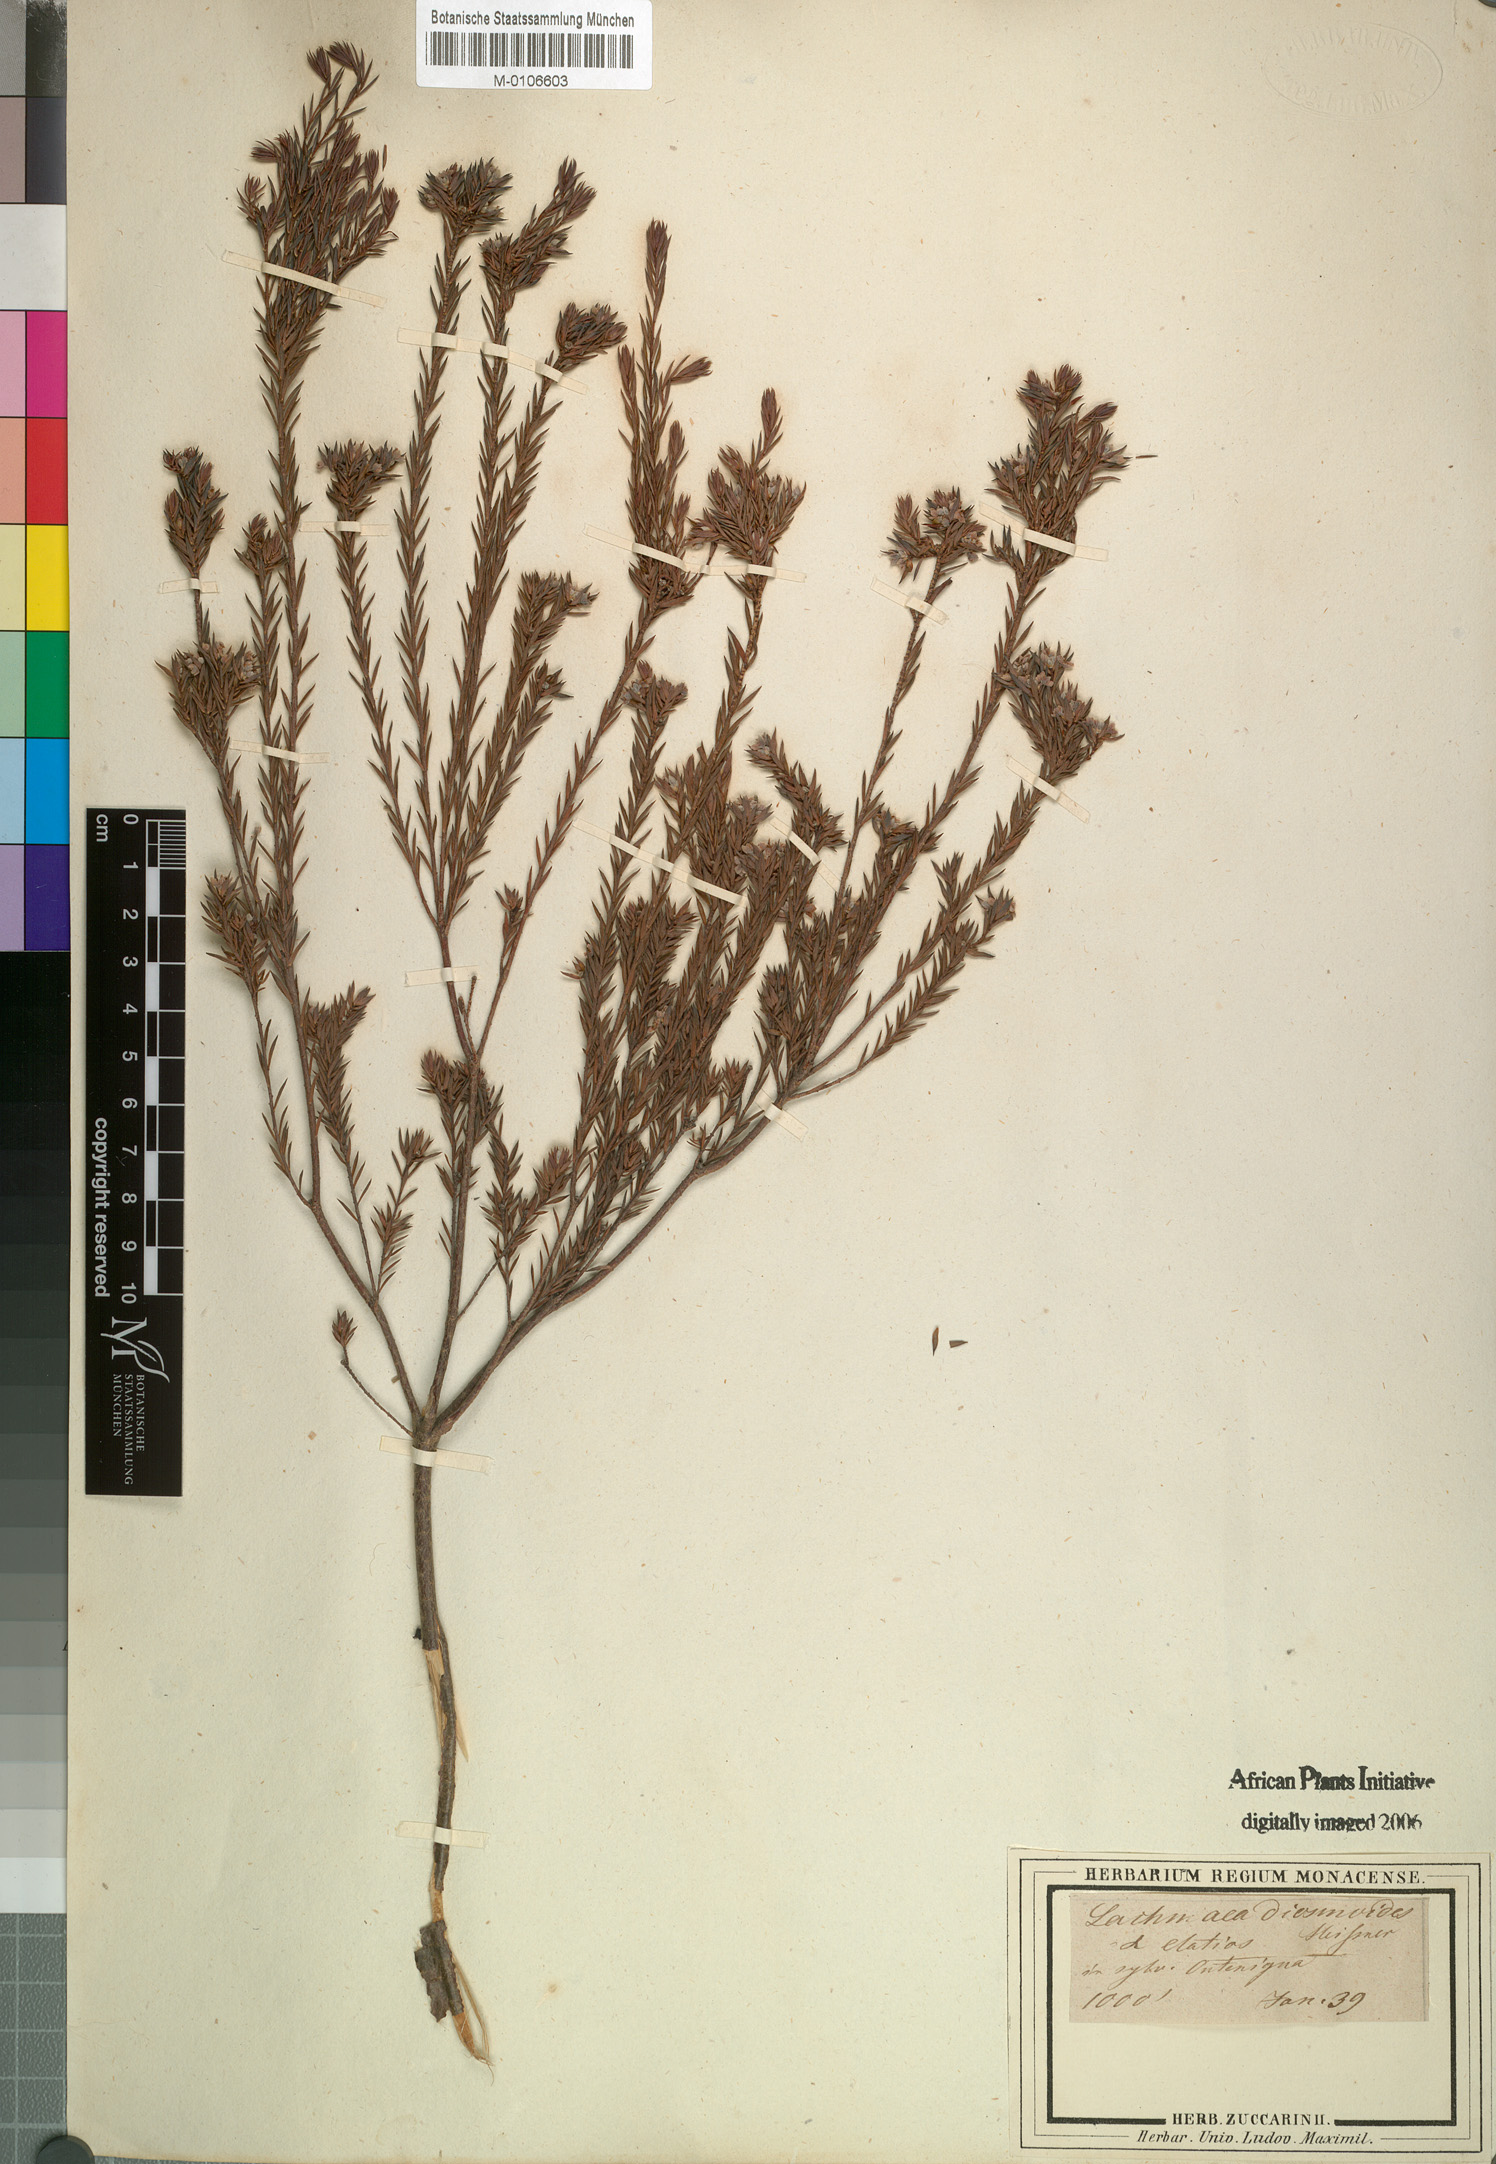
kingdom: Plantae
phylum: Tracheophyta
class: Magnoliopsida
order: Malvales
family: Thymelaeaceae
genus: Lachnaea
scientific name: Lachnaea diosmoides
